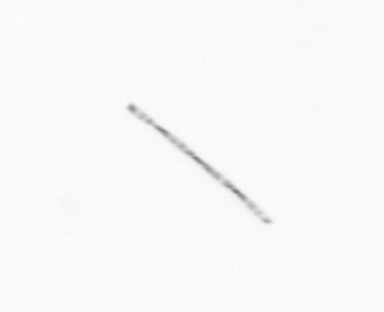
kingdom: Chromista
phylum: Ochrophyta
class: Bacillariophyceae
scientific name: Bacillariophyceae
